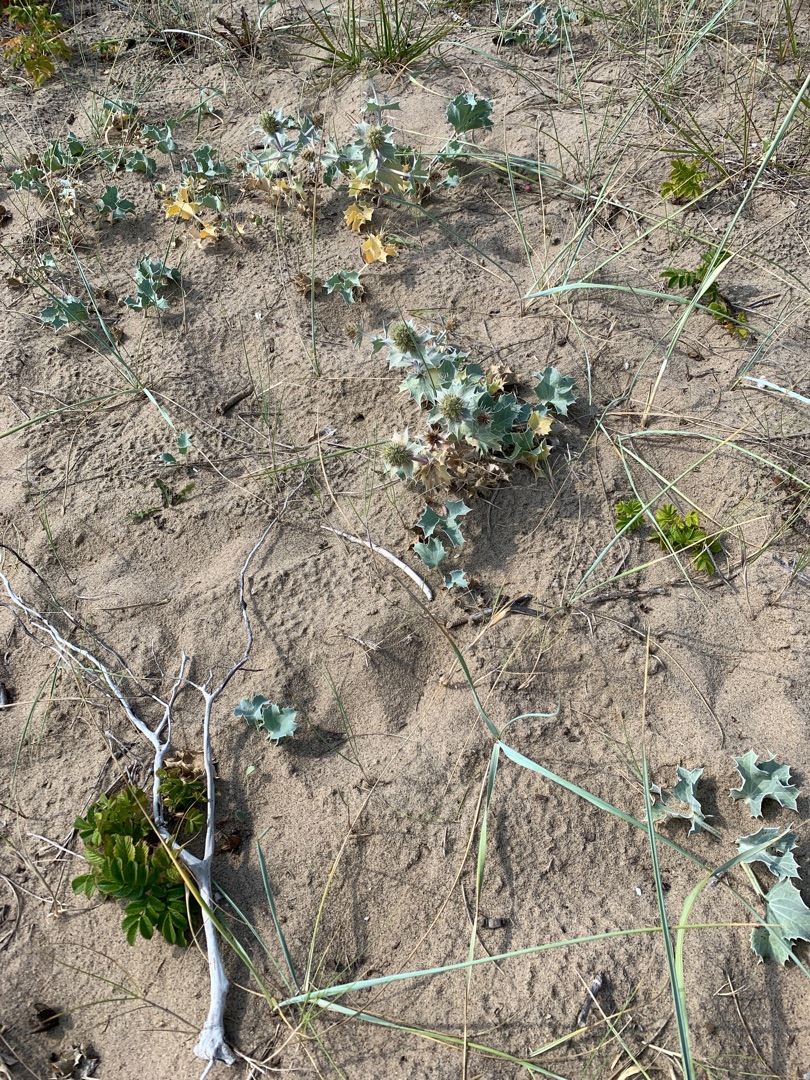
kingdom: Plantae
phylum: Tracheophyta
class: Magnoliopsida
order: Apiales
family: Apiaceae
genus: Eryngium
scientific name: Eryngium maritimum
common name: Strand-mandstro
